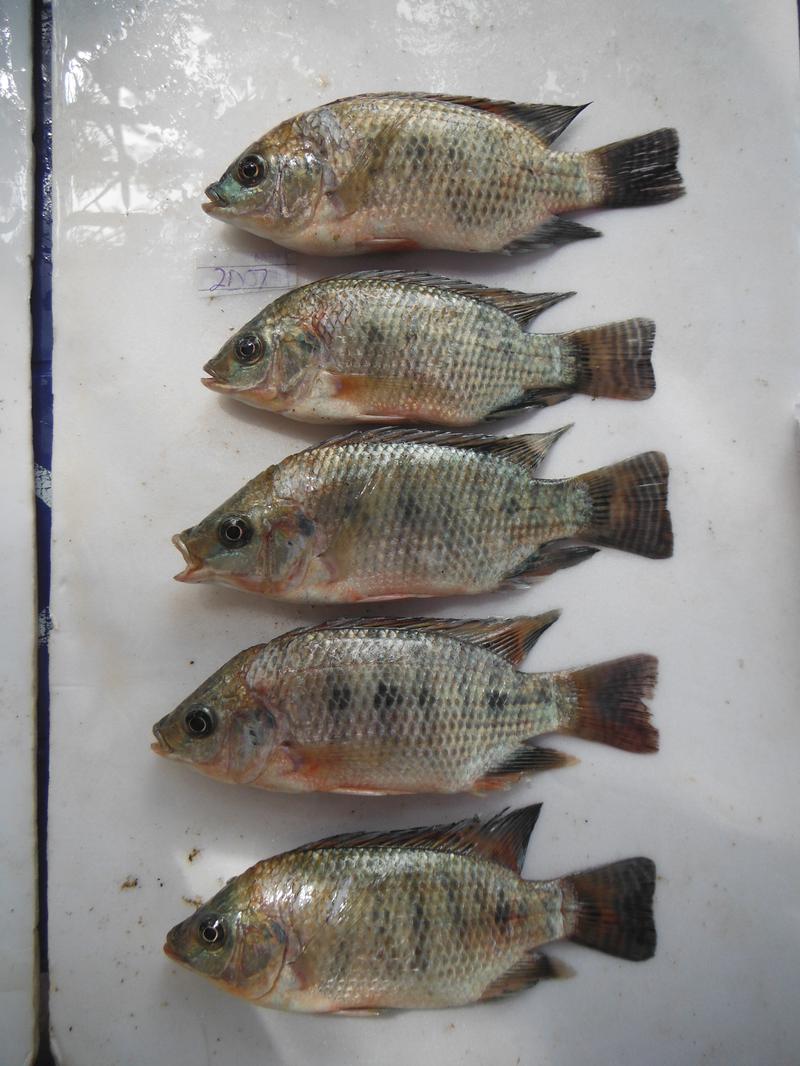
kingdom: Animalia
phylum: Chordata
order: Perciformes
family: Cichlidae
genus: Oreochromis
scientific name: Oreochromis urolepis
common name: Wami tilapia
